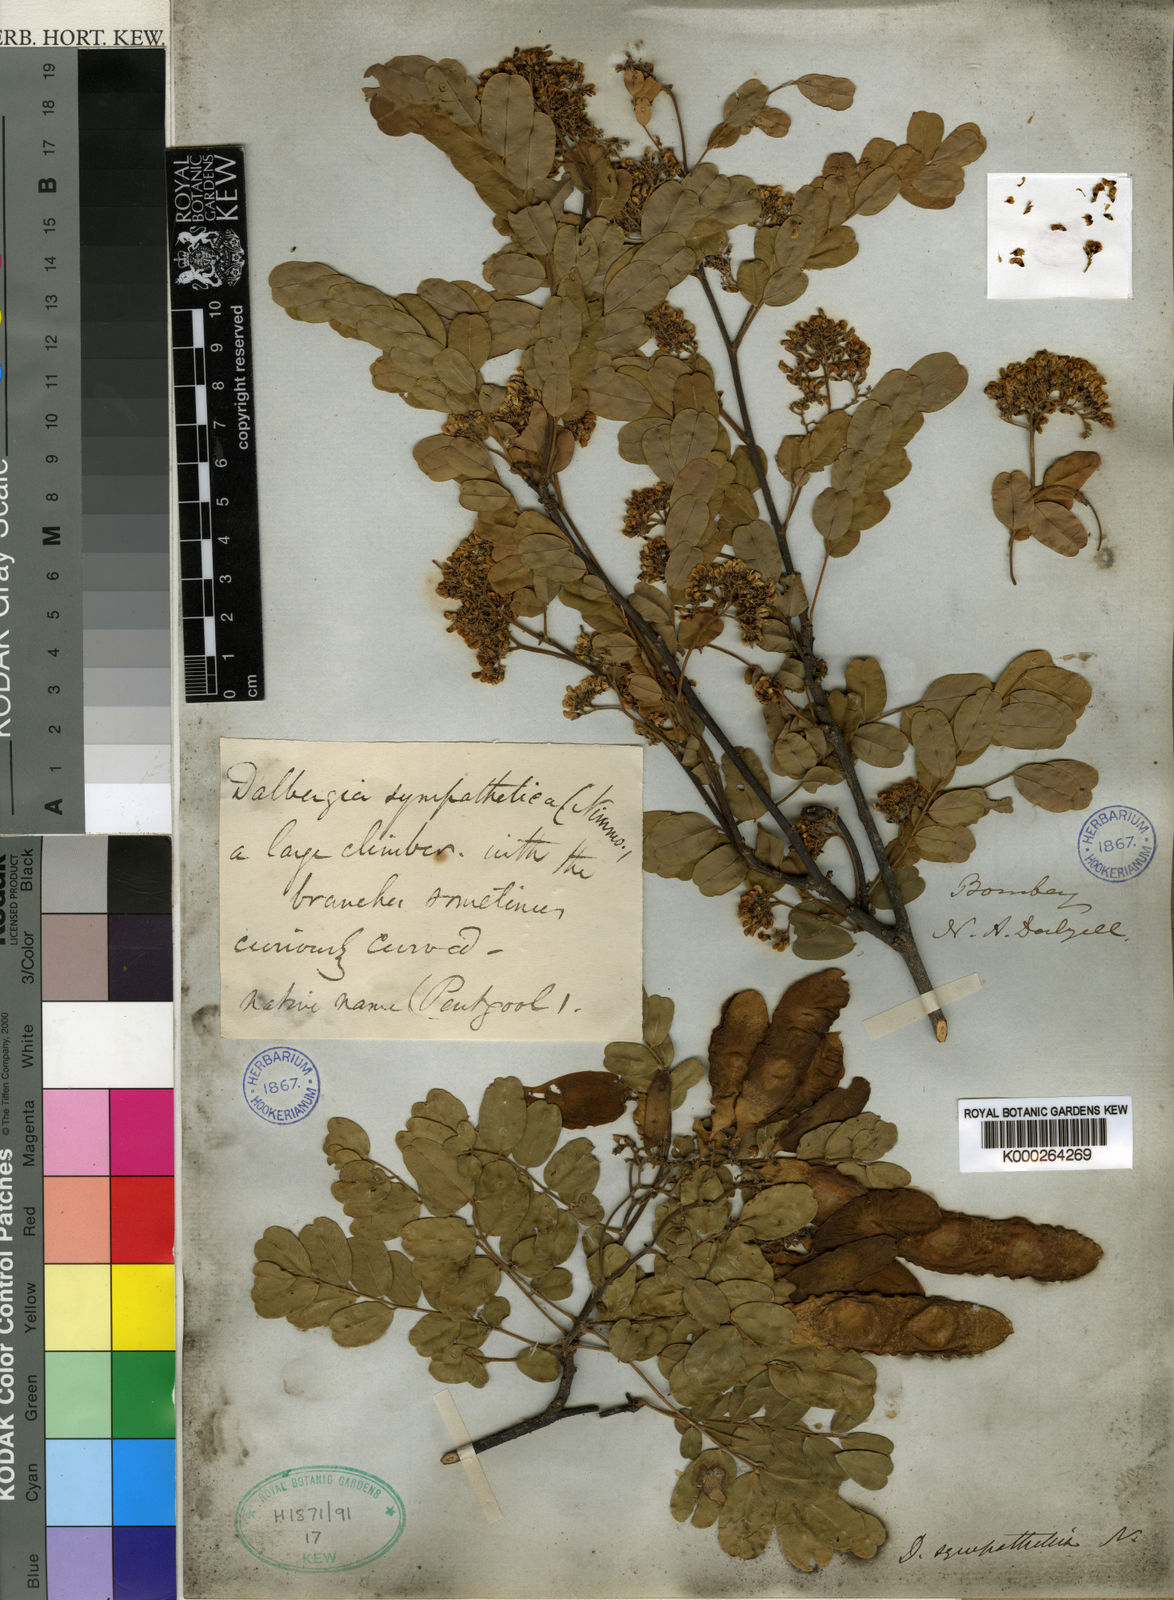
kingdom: Plantae
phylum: Tracheophyta
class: Magnoliopsida
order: Fabales
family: Fabaceae
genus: Dalbergia
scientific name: Dalbergia horrida
